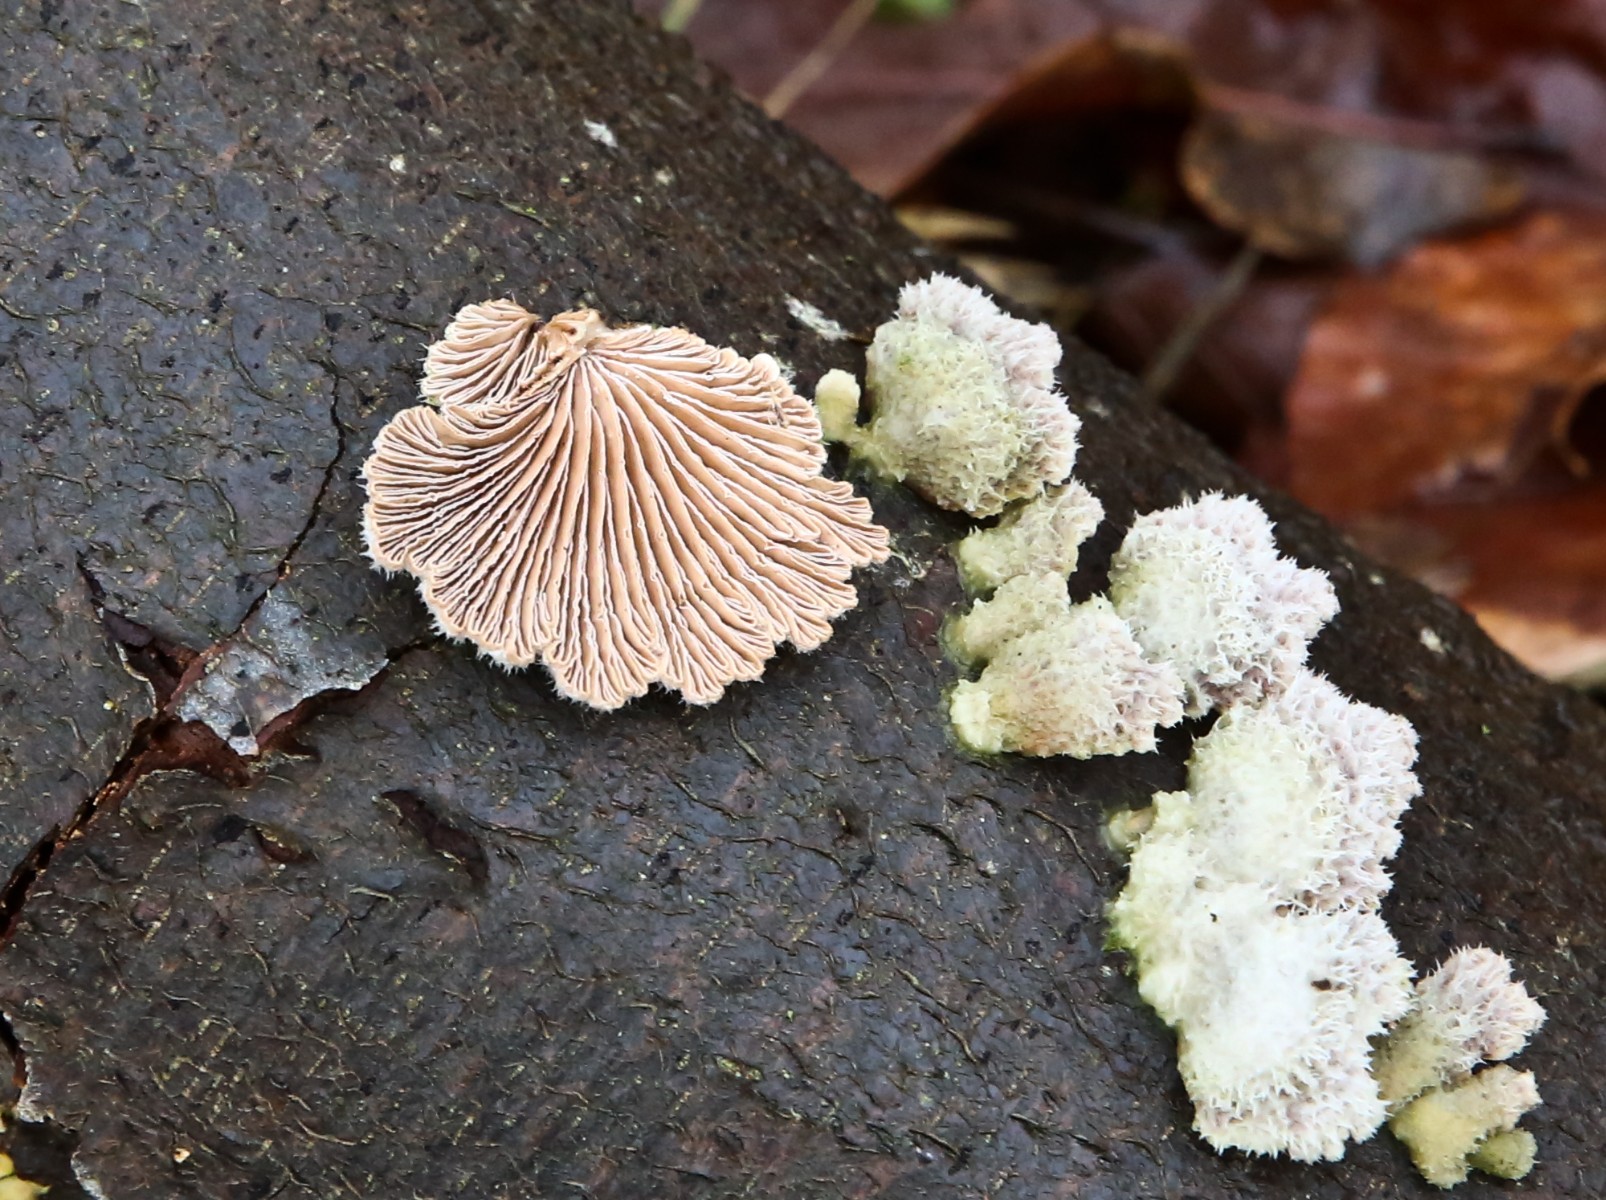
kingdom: Fungi
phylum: Basidiomycota
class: Agaricomycetes
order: Agaricales
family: Schizophyllaceae
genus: Schizophyllum
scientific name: Schizophyllum commune
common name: kløvblad
